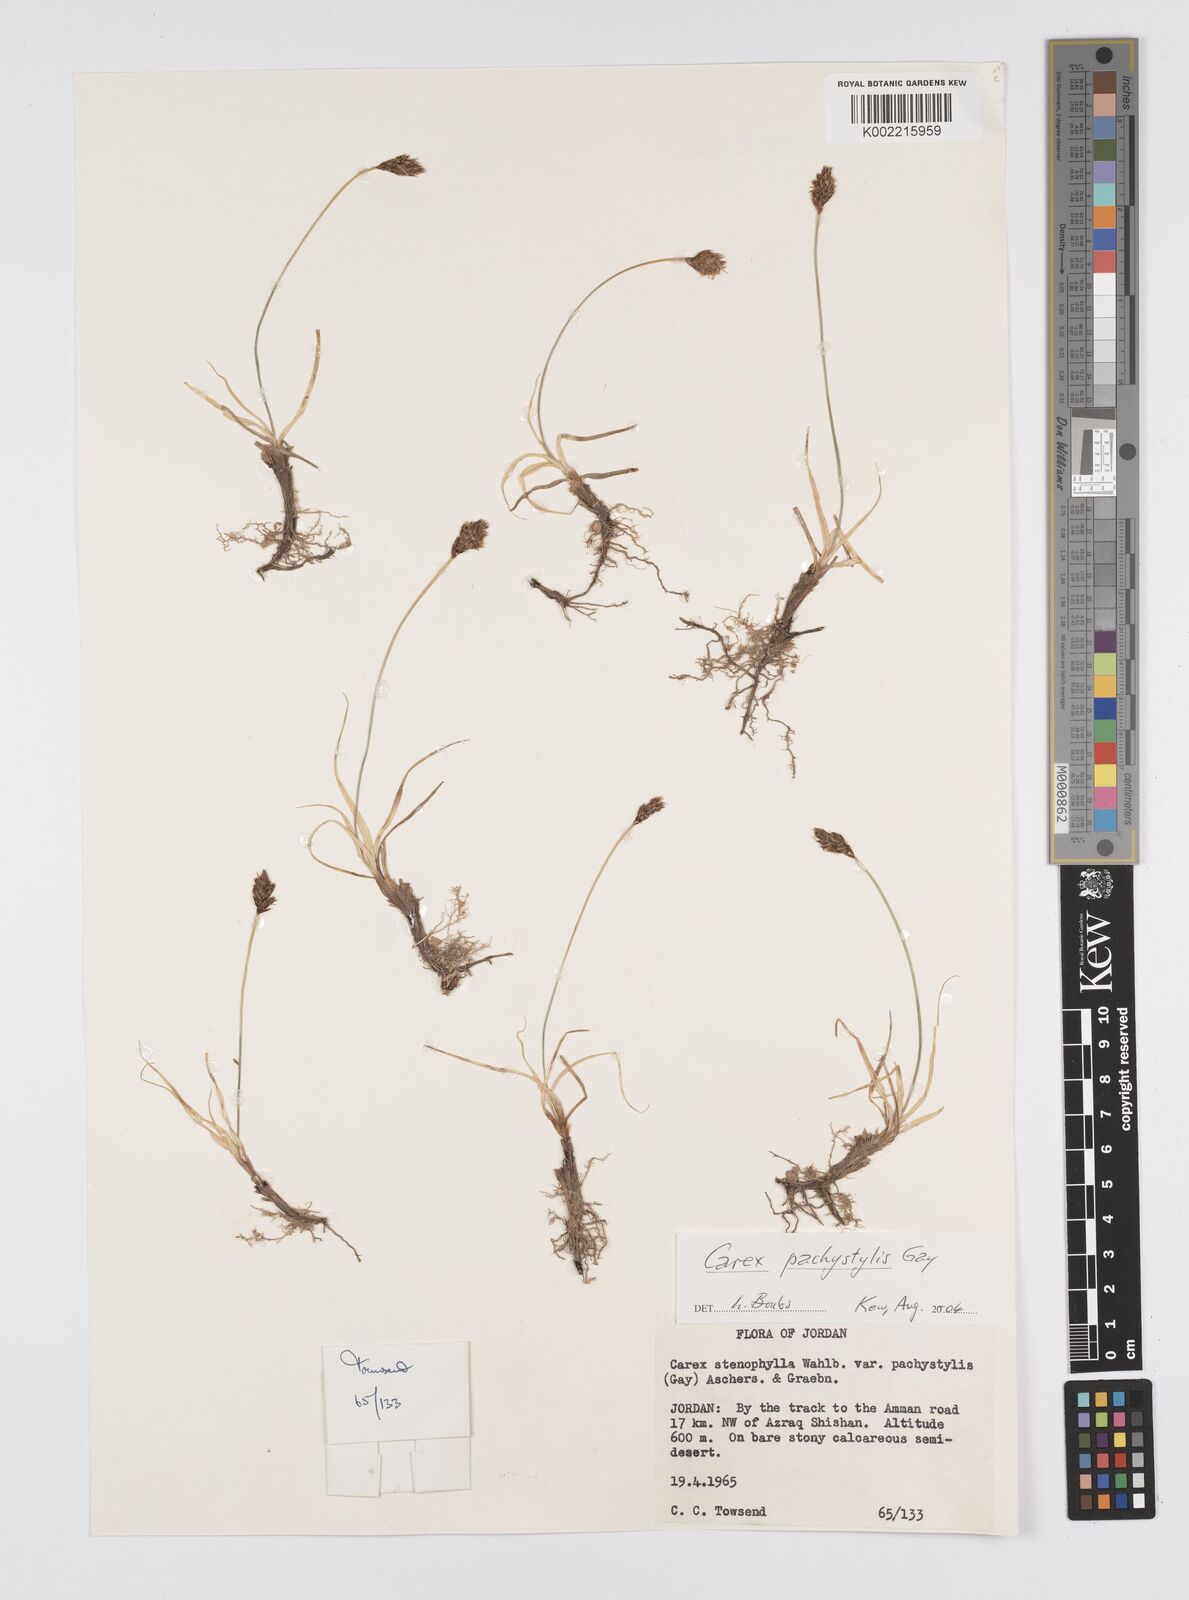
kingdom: Plantae
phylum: Tracheophyta
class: Liliopsida
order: Poales
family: Cyperaceae
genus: Carex
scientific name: Carex pachystylis
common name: Thick-stem sedge
